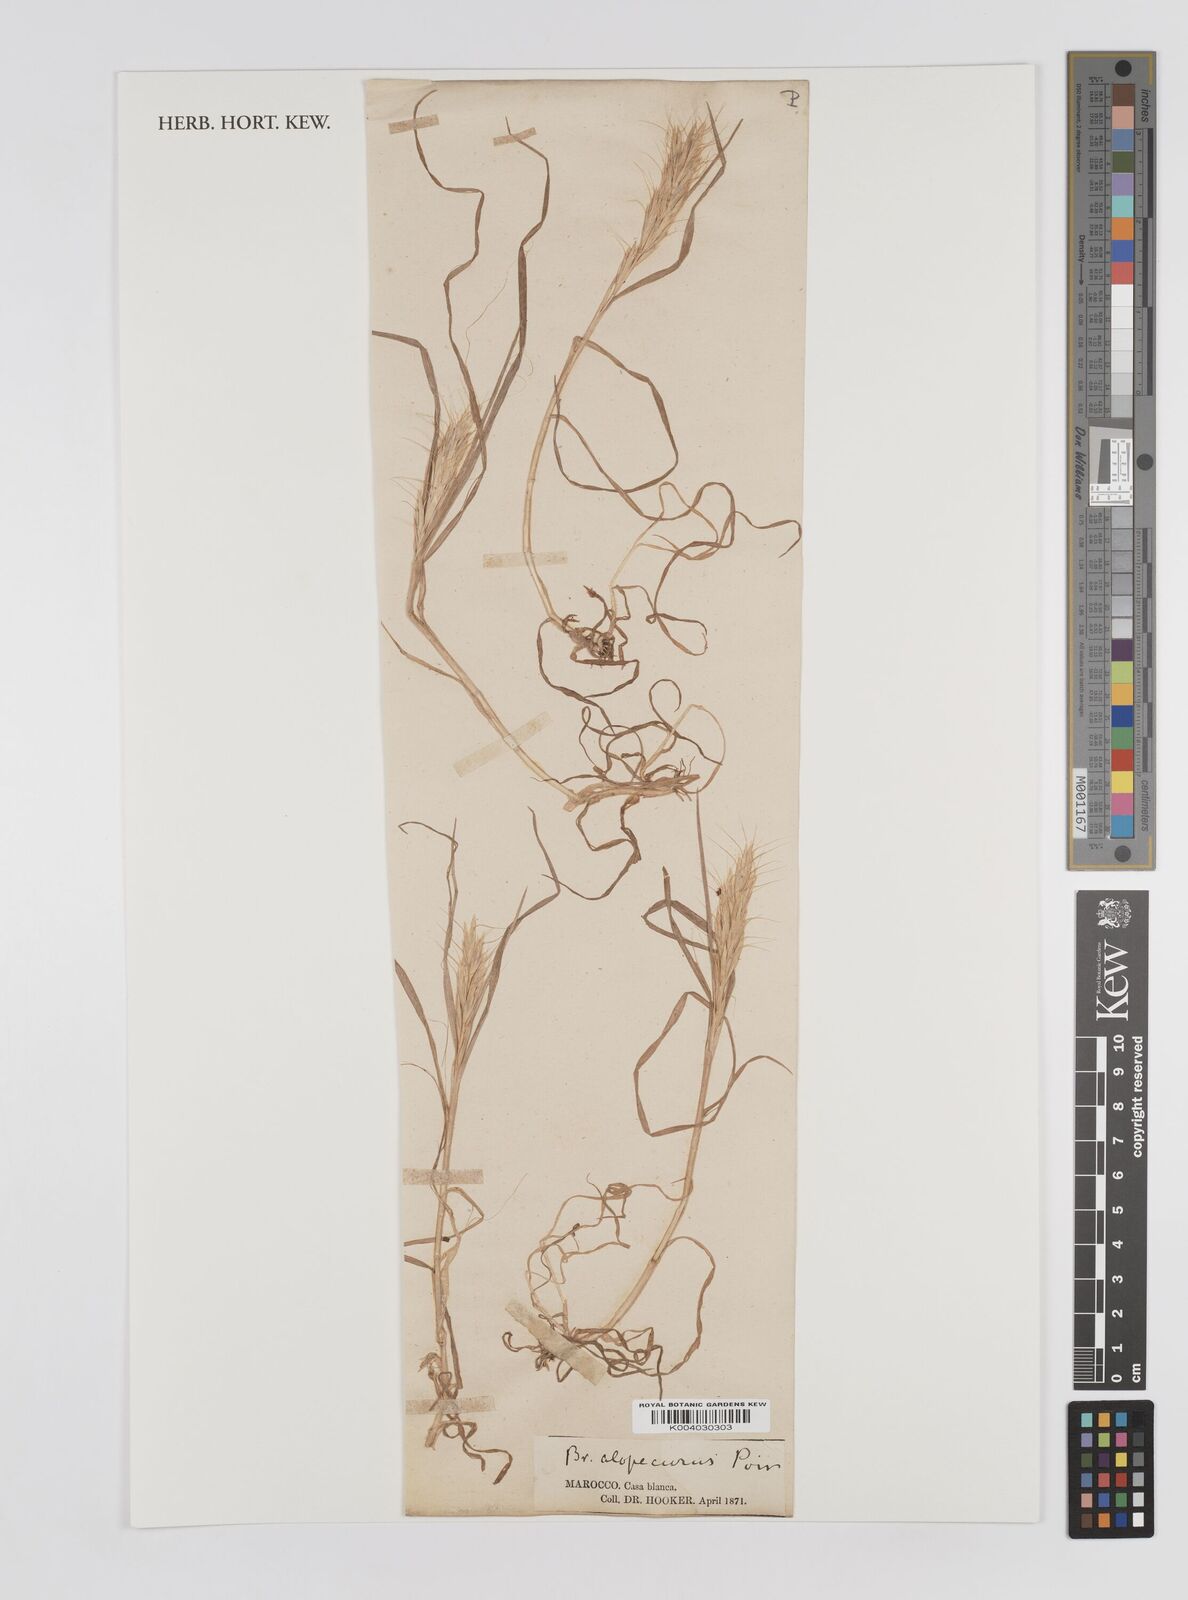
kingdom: Plantae
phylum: Tracheophyta
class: Liliopsida
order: Poales
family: Poaceae
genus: Bromus
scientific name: Bromus alopecuros
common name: Weedy brome
